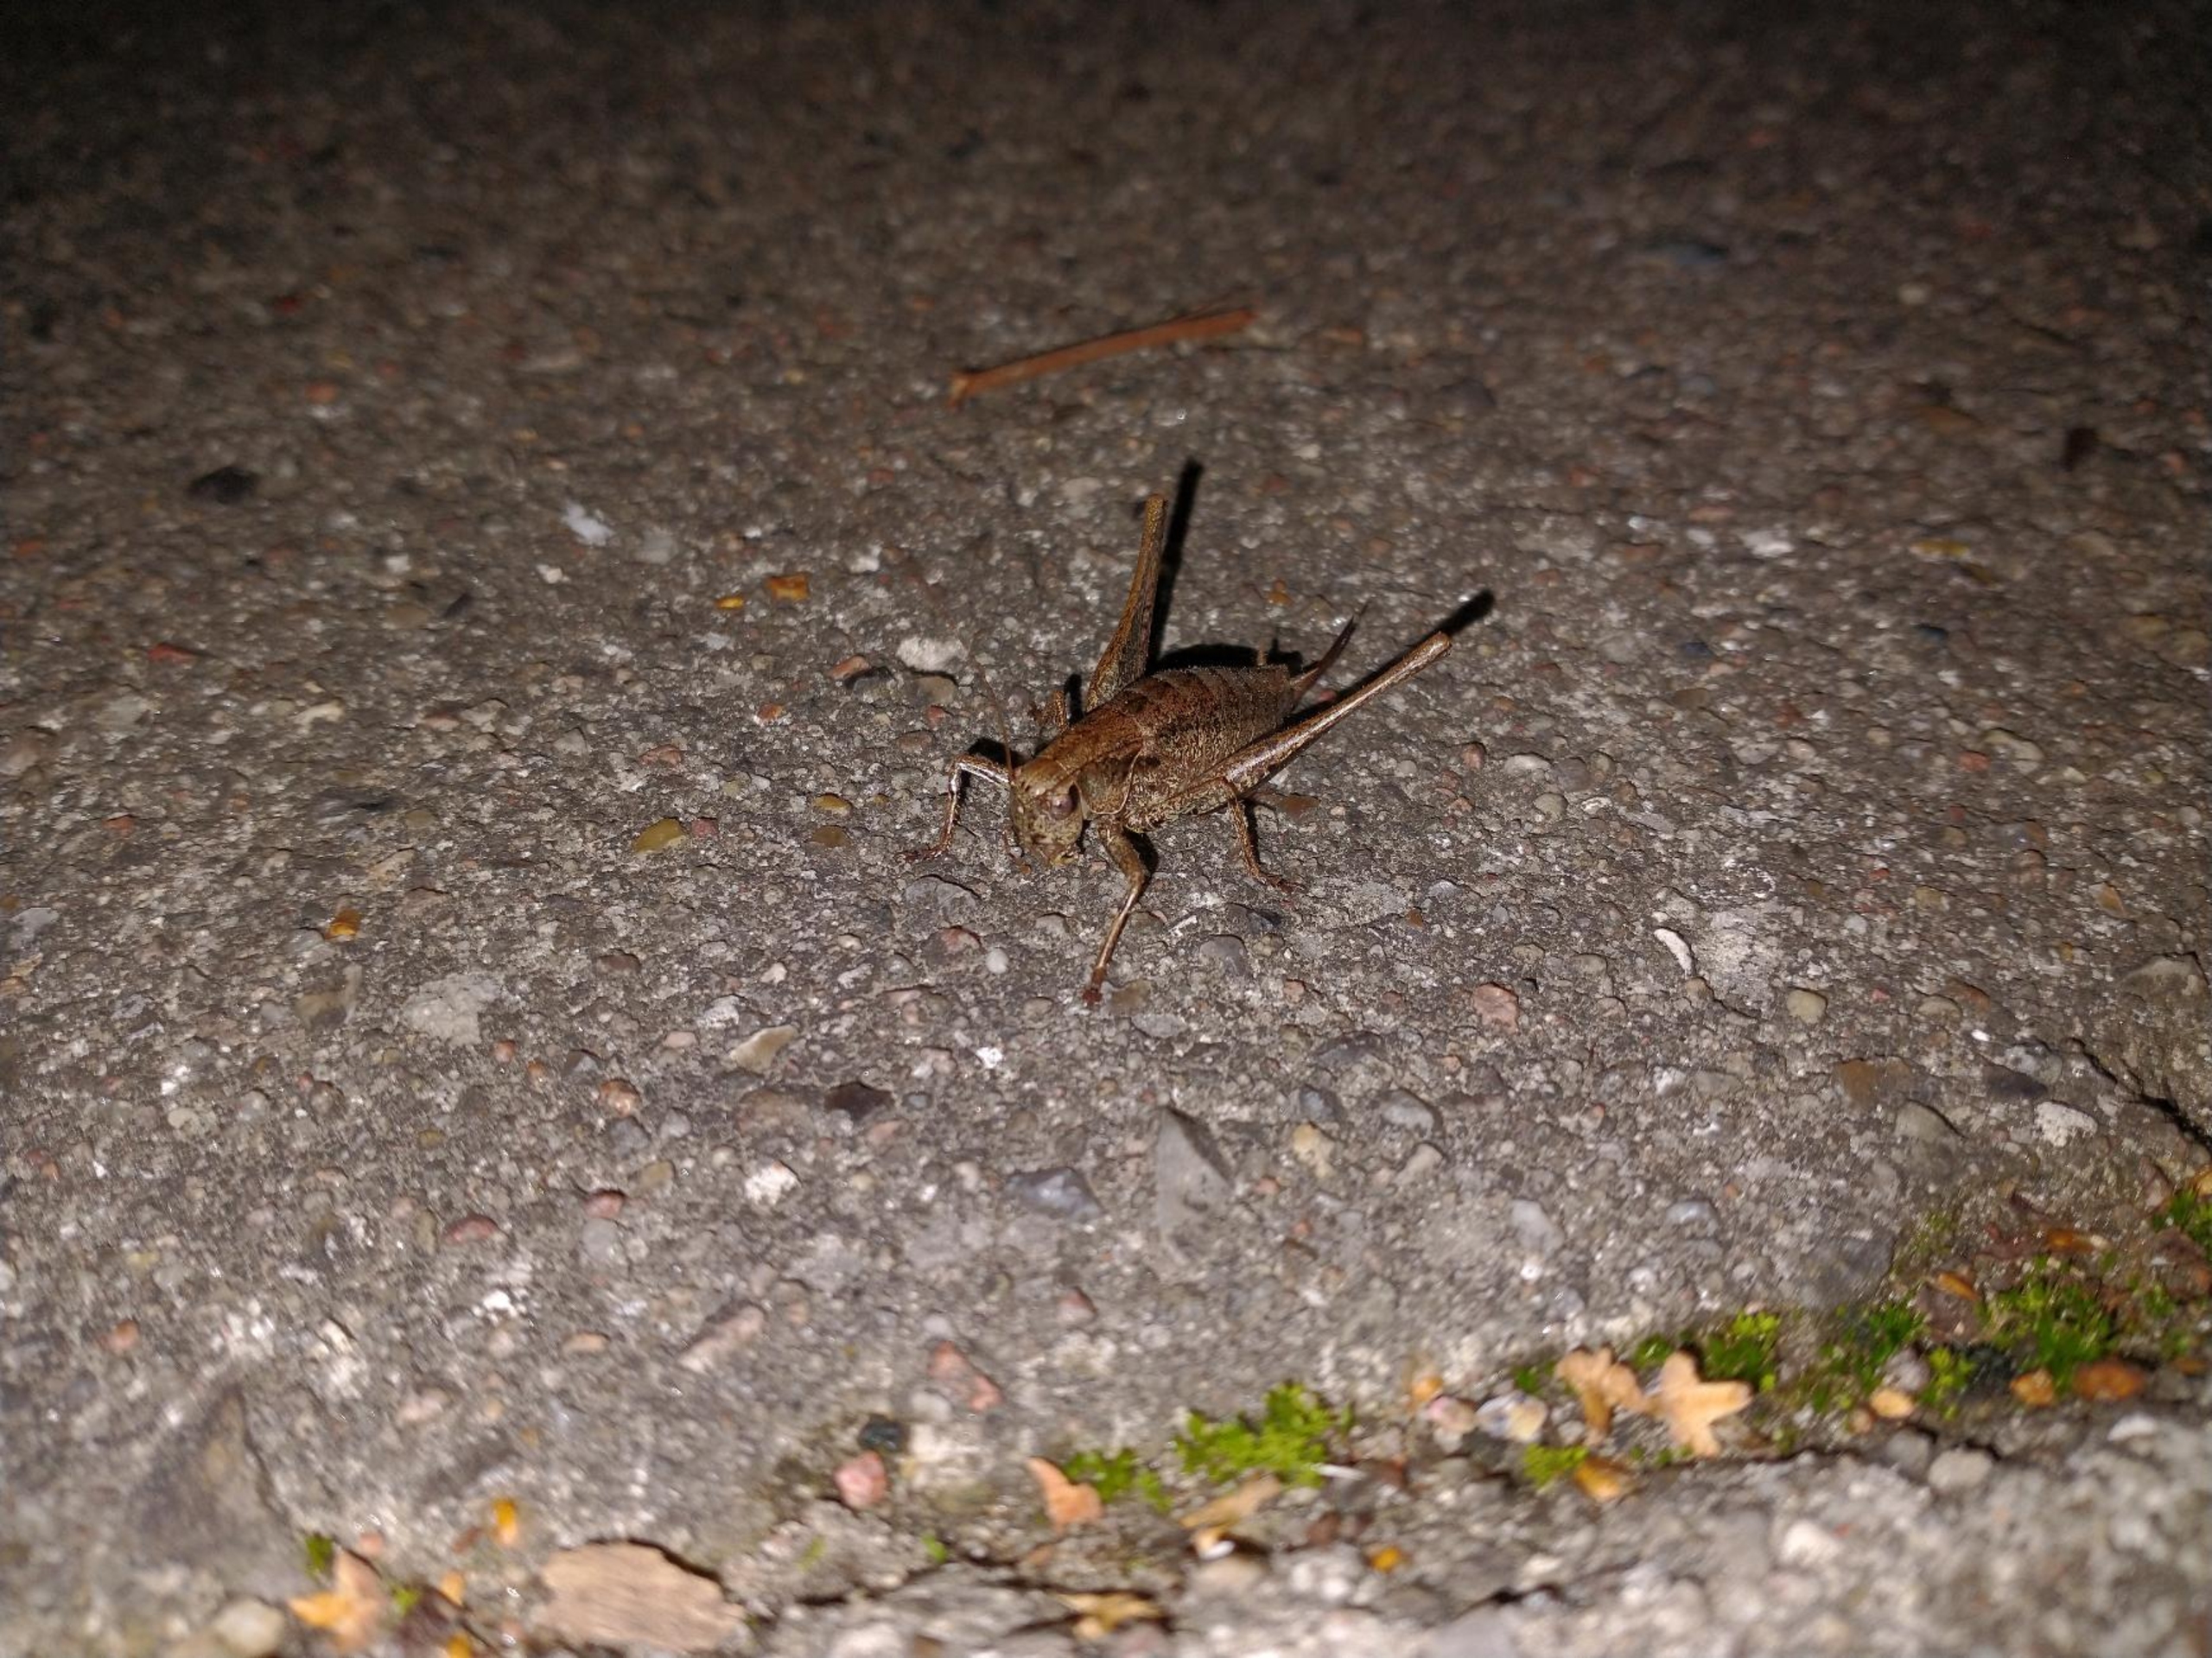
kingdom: Animalia
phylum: Arthropoda
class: Insecta
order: Orthoptera
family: Tettigoniidae
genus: Pholidoptera
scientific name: Pholidoptera griseoaptera
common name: Buskgræshoppe
